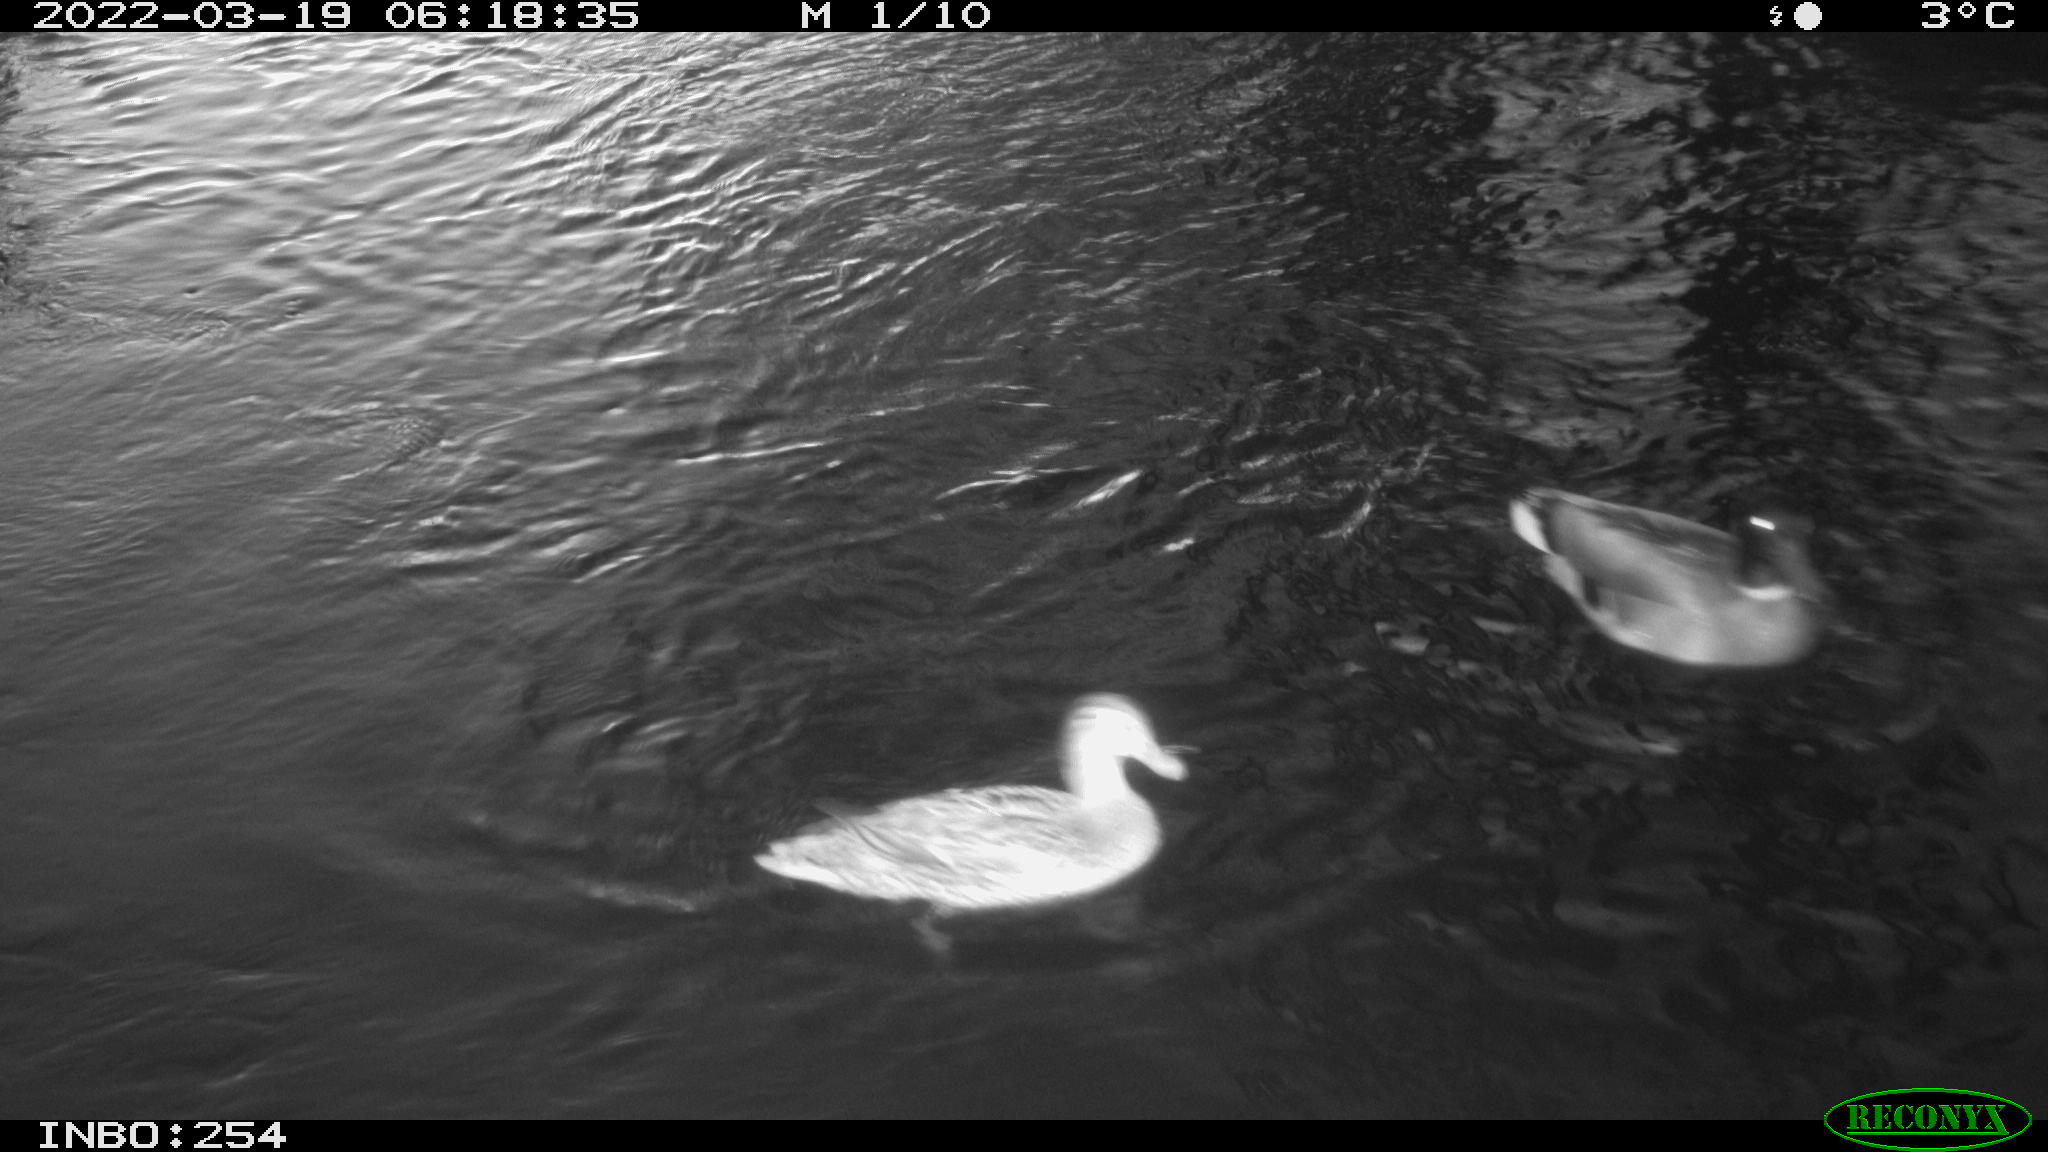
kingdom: Animalia
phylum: Chordata
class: Aves
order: Anseriformes
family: Anatidae
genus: Anas
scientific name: Anas platyrhynchos
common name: Mallard
